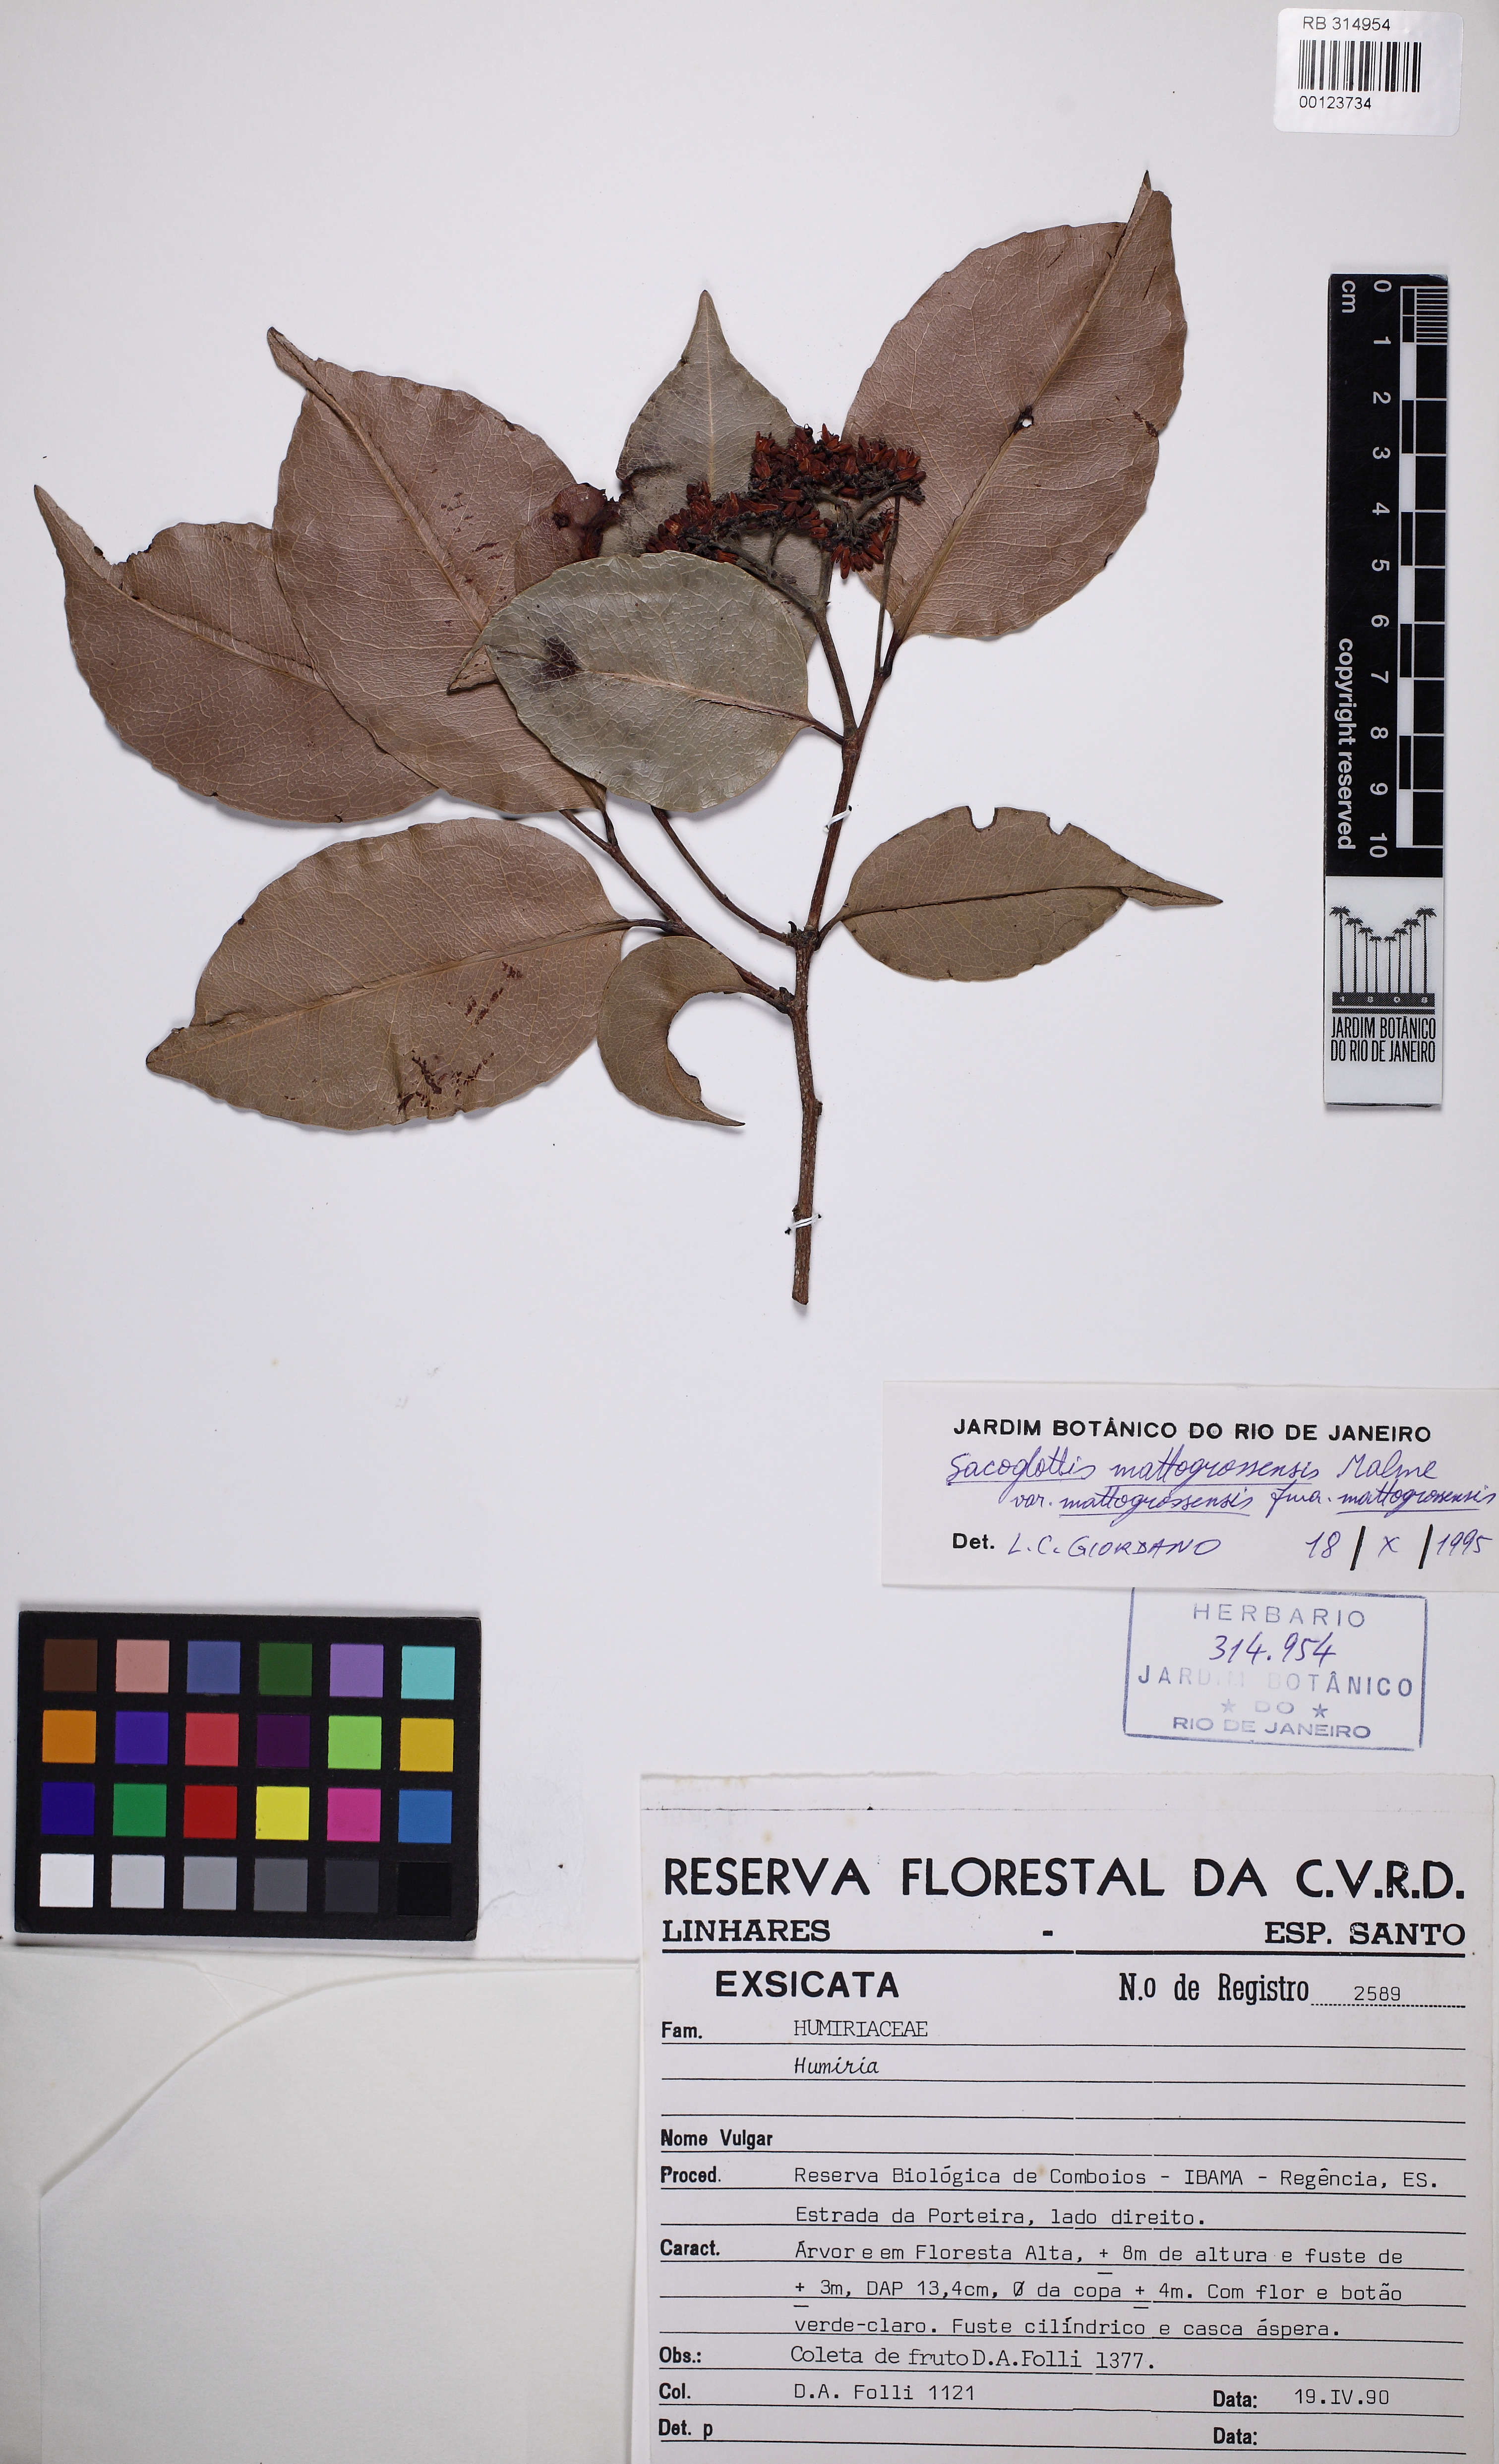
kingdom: Plantae
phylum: Tracheophyta
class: Magnoliopsida
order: Malpighiales
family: Humiriaceae
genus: Sacoglottis
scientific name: Sacoglottis mattogrossensis
